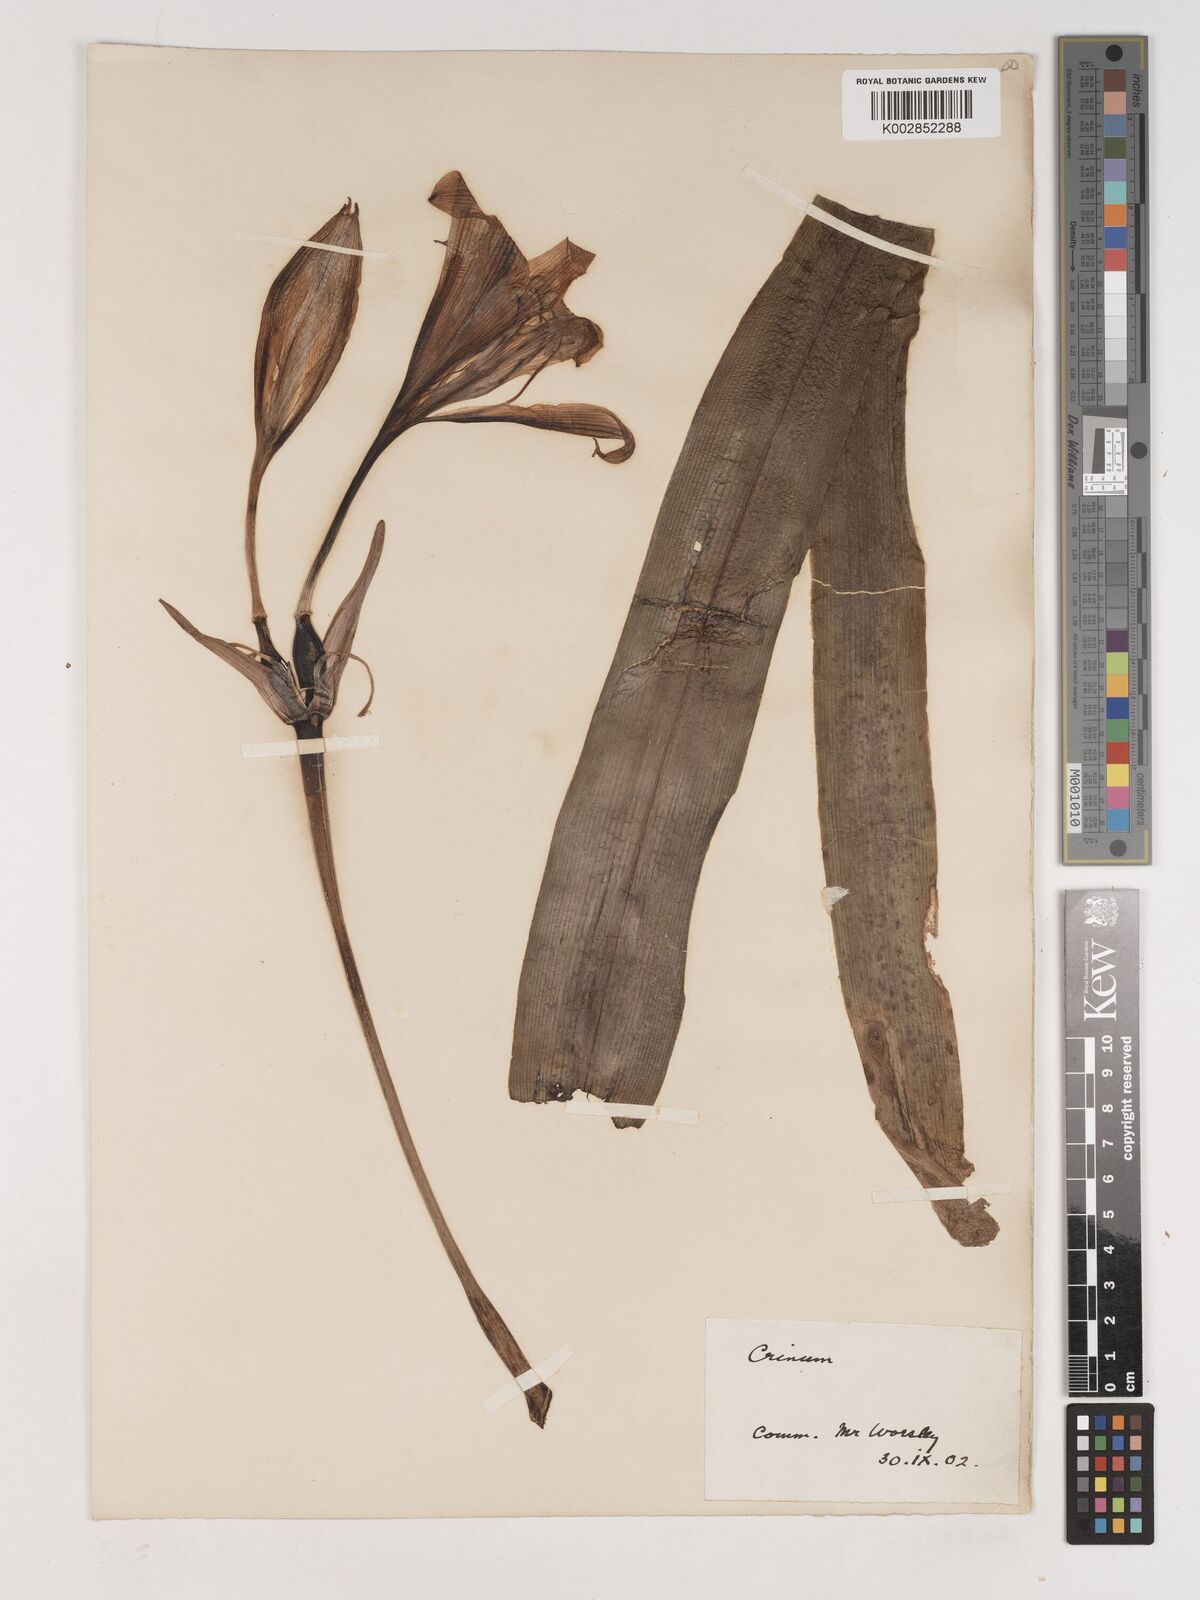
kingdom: Plantae
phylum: Tracheophyta
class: Liliopsida
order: Asparagales
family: Amaryllidaceae
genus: Crinum
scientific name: Crinum
